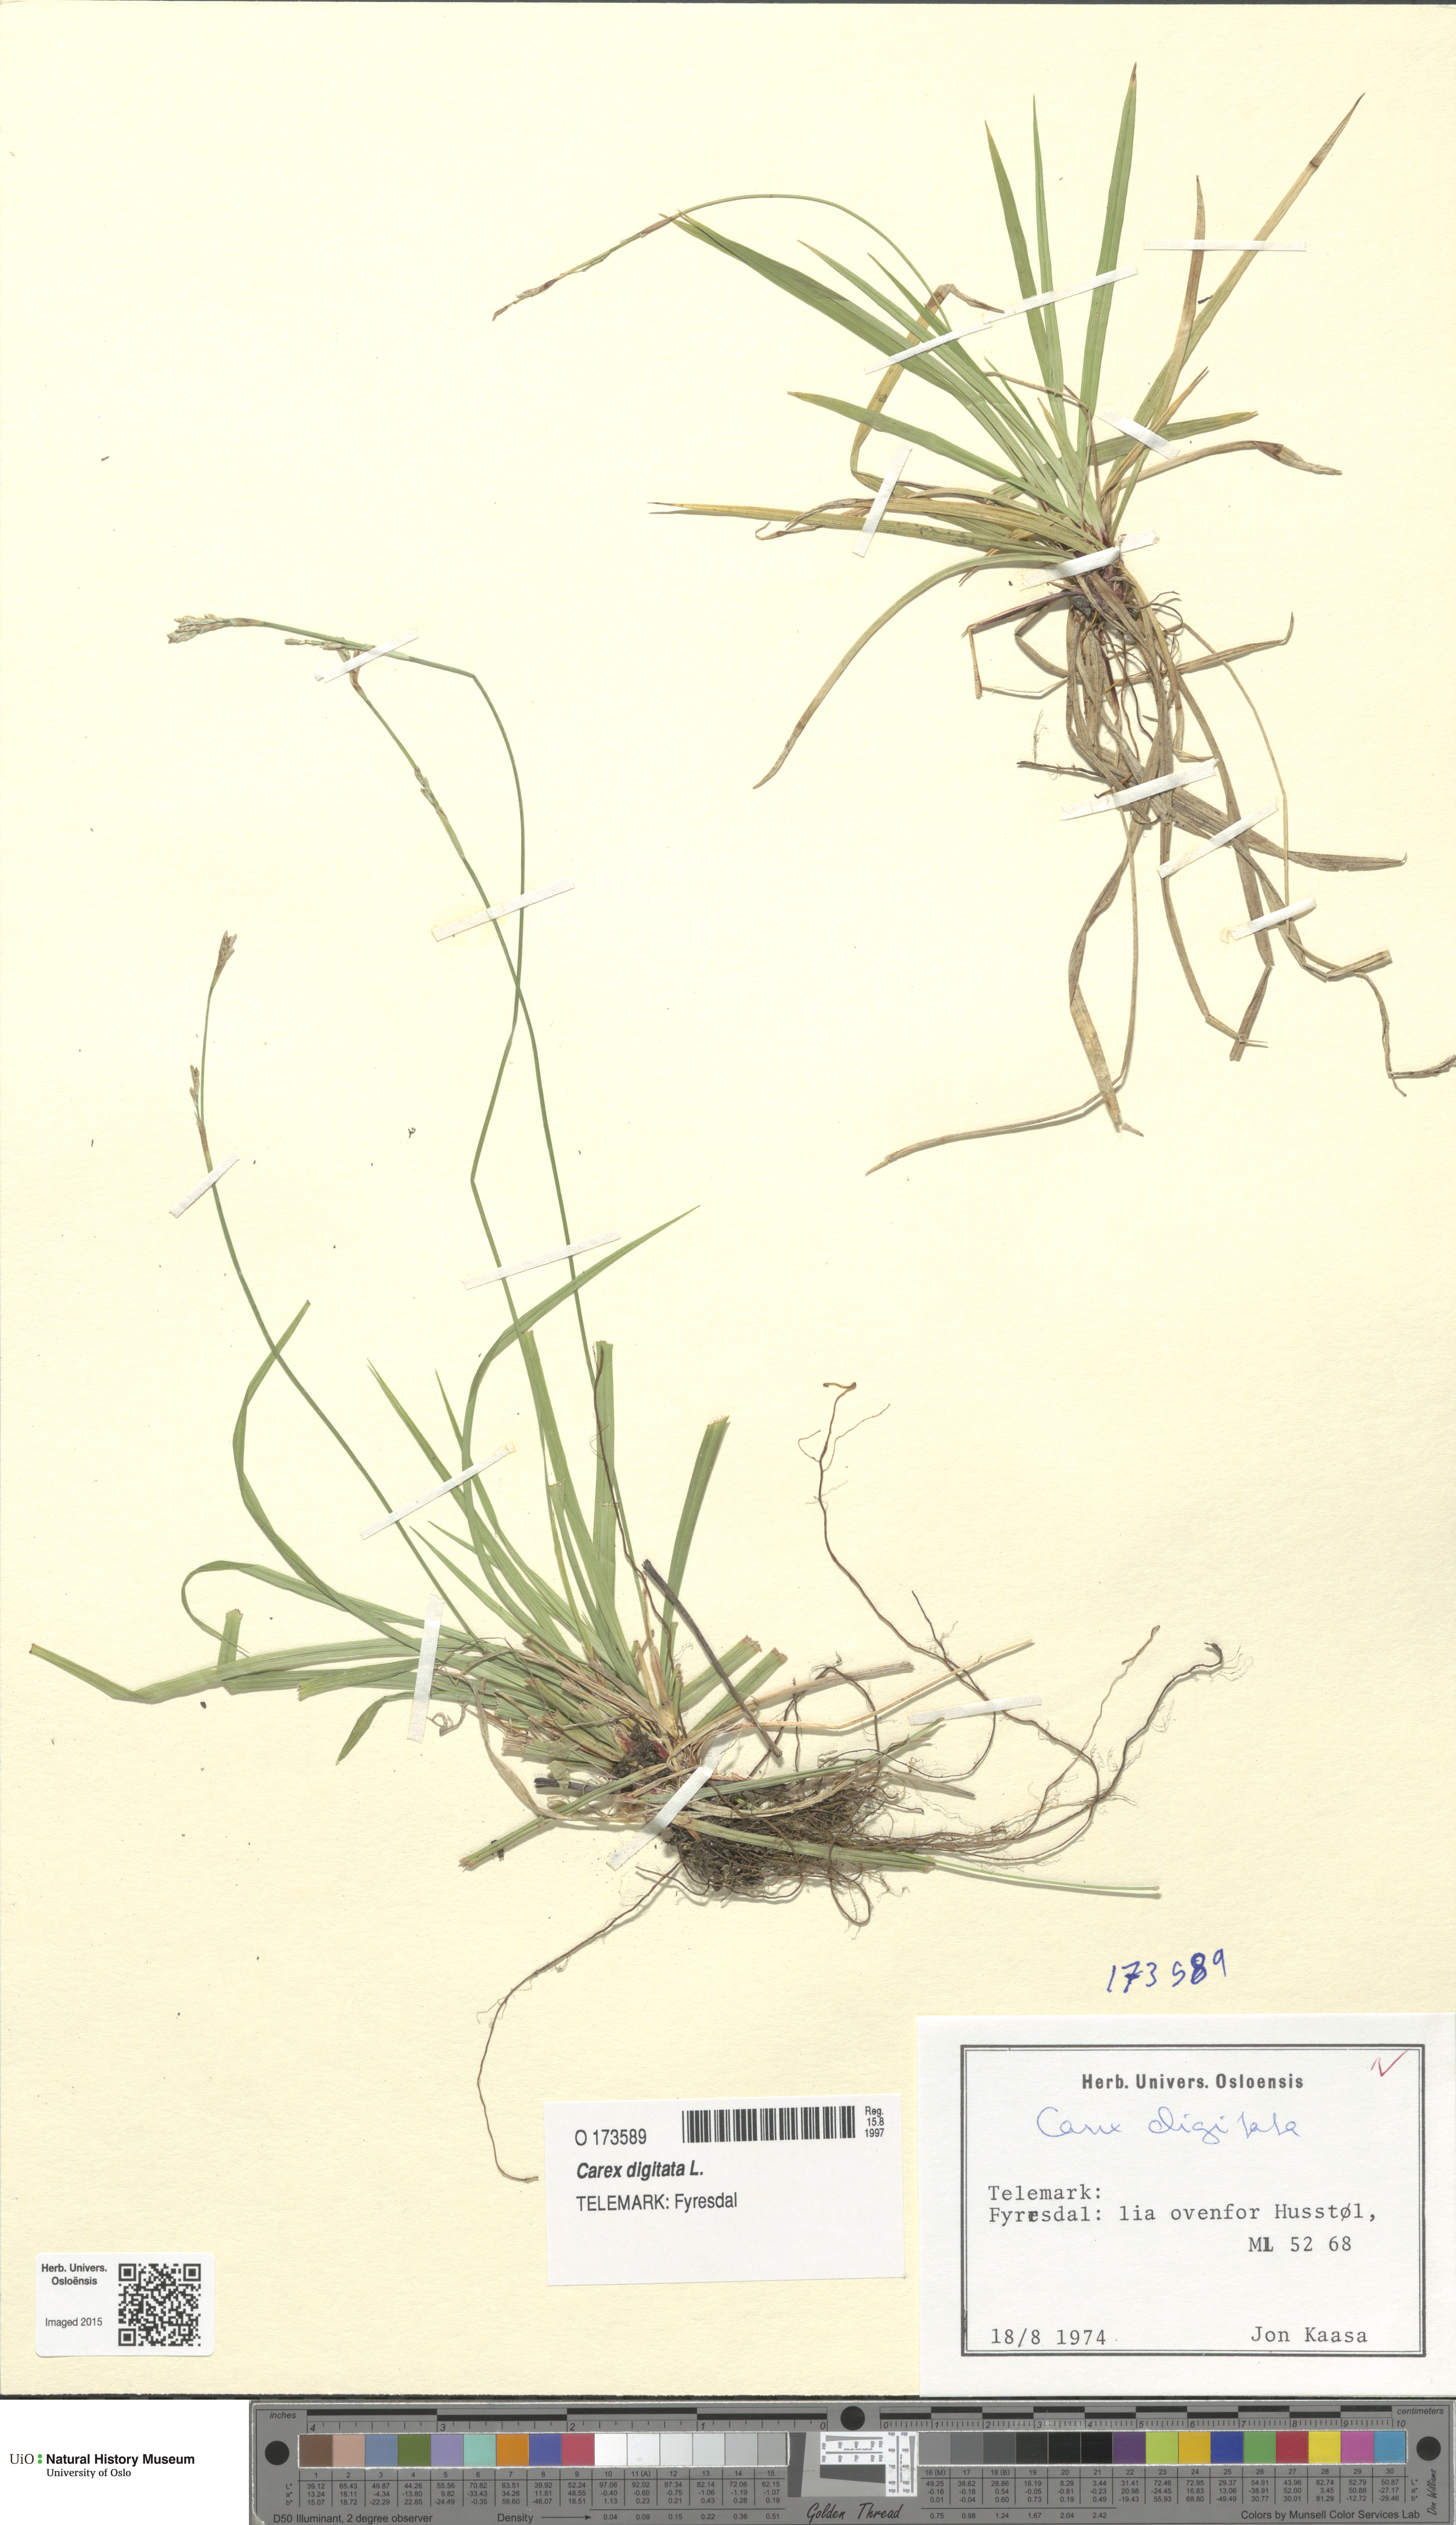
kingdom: Plantae
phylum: Tracheophyta
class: Liliopsida
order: Poales
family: Cyperaceae
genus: Carex
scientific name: Carex digitata
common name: Fingered sedge
